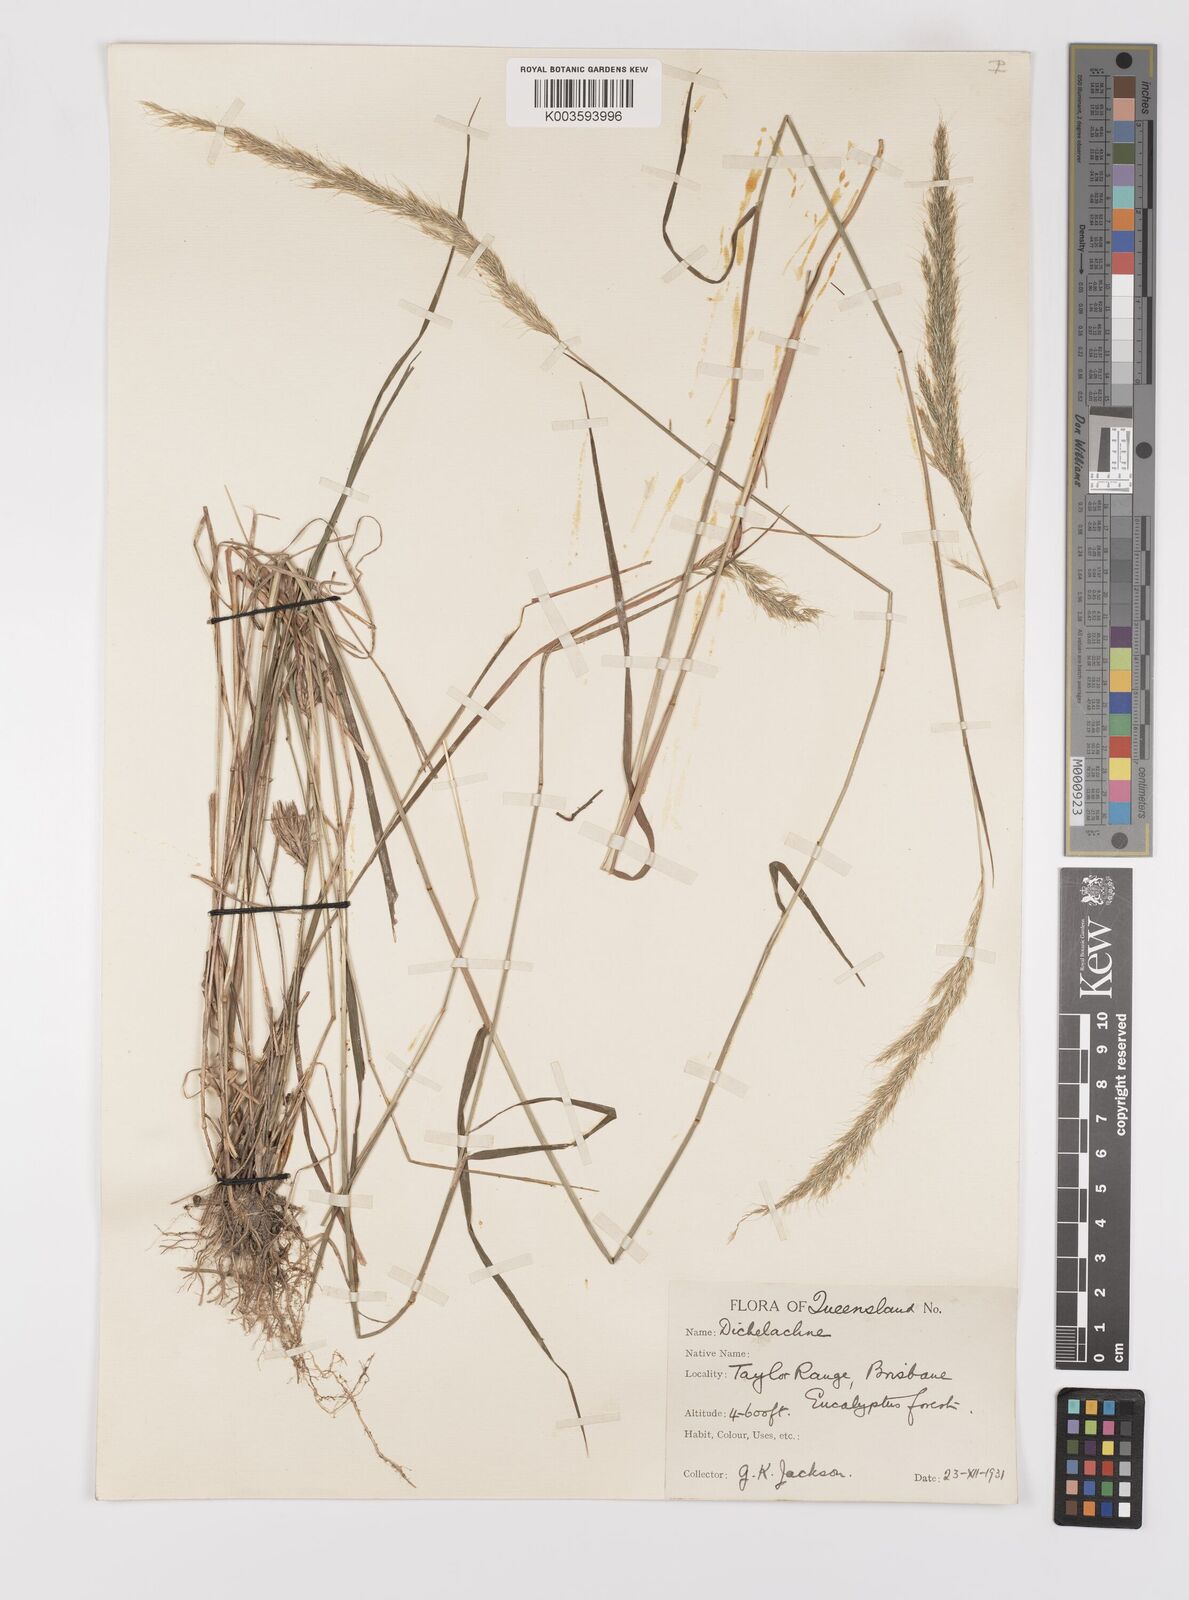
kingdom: Plantae
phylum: Tracheophyta
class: Liliopsida
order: Poales
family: Poaceae
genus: Dichelachne
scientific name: Dichelachne micrantha
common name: Plumegrass
